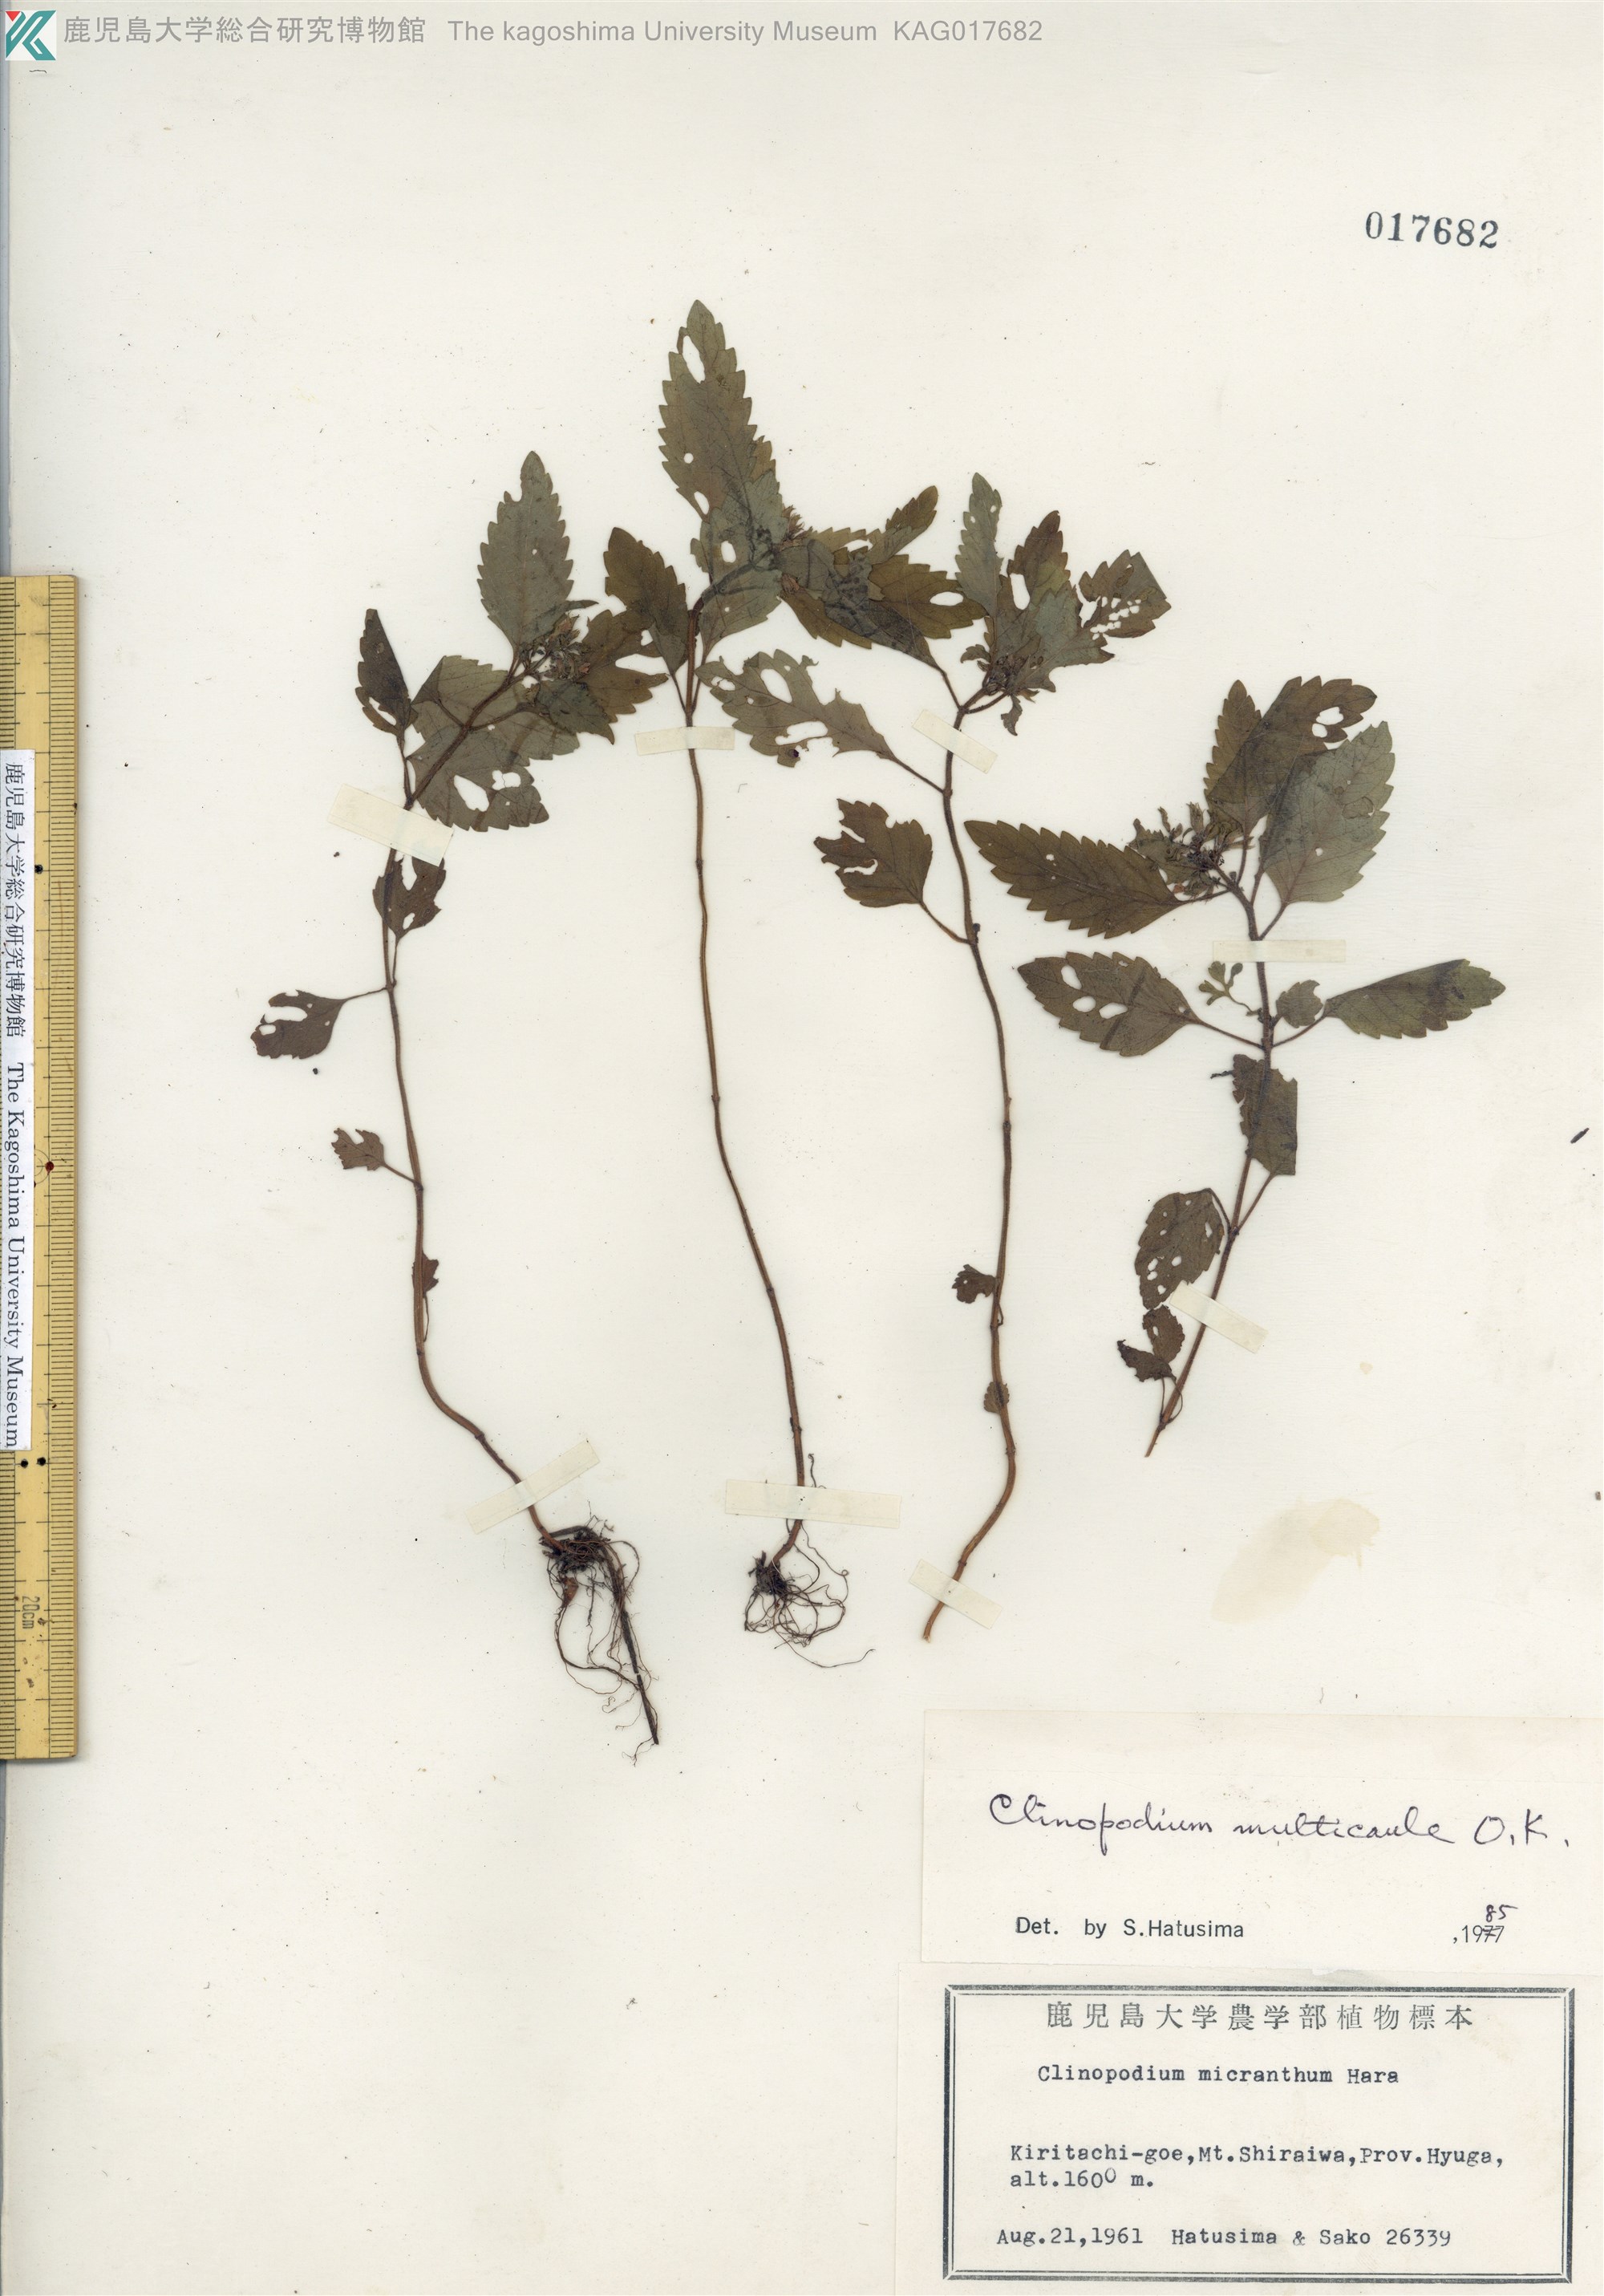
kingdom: Plantae
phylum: Tracheophyta
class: Magnoliopsida
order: Lamiales
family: Lamiaceae
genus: Clinopodium
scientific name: Clinopodium multicaule
